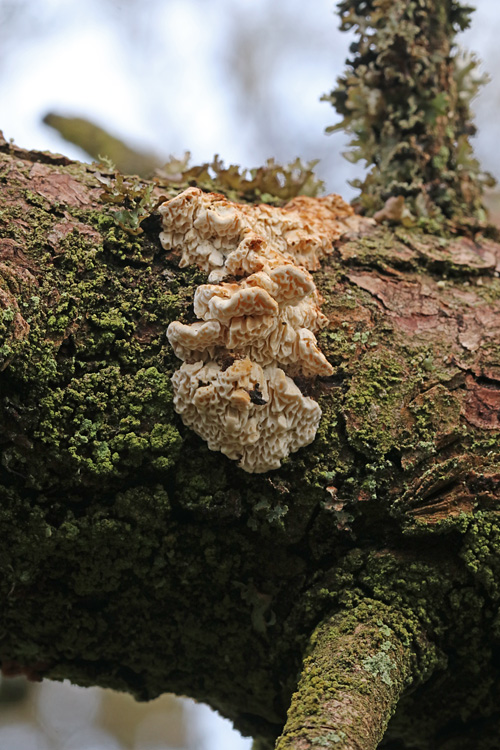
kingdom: Fungi
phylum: Basidiomycota
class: Agaricomycetes
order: Polyporales
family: Fomitopsidaceae
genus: Fomitopsis
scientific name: Fomitopsis
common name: fyrre-skiveporesvamp
